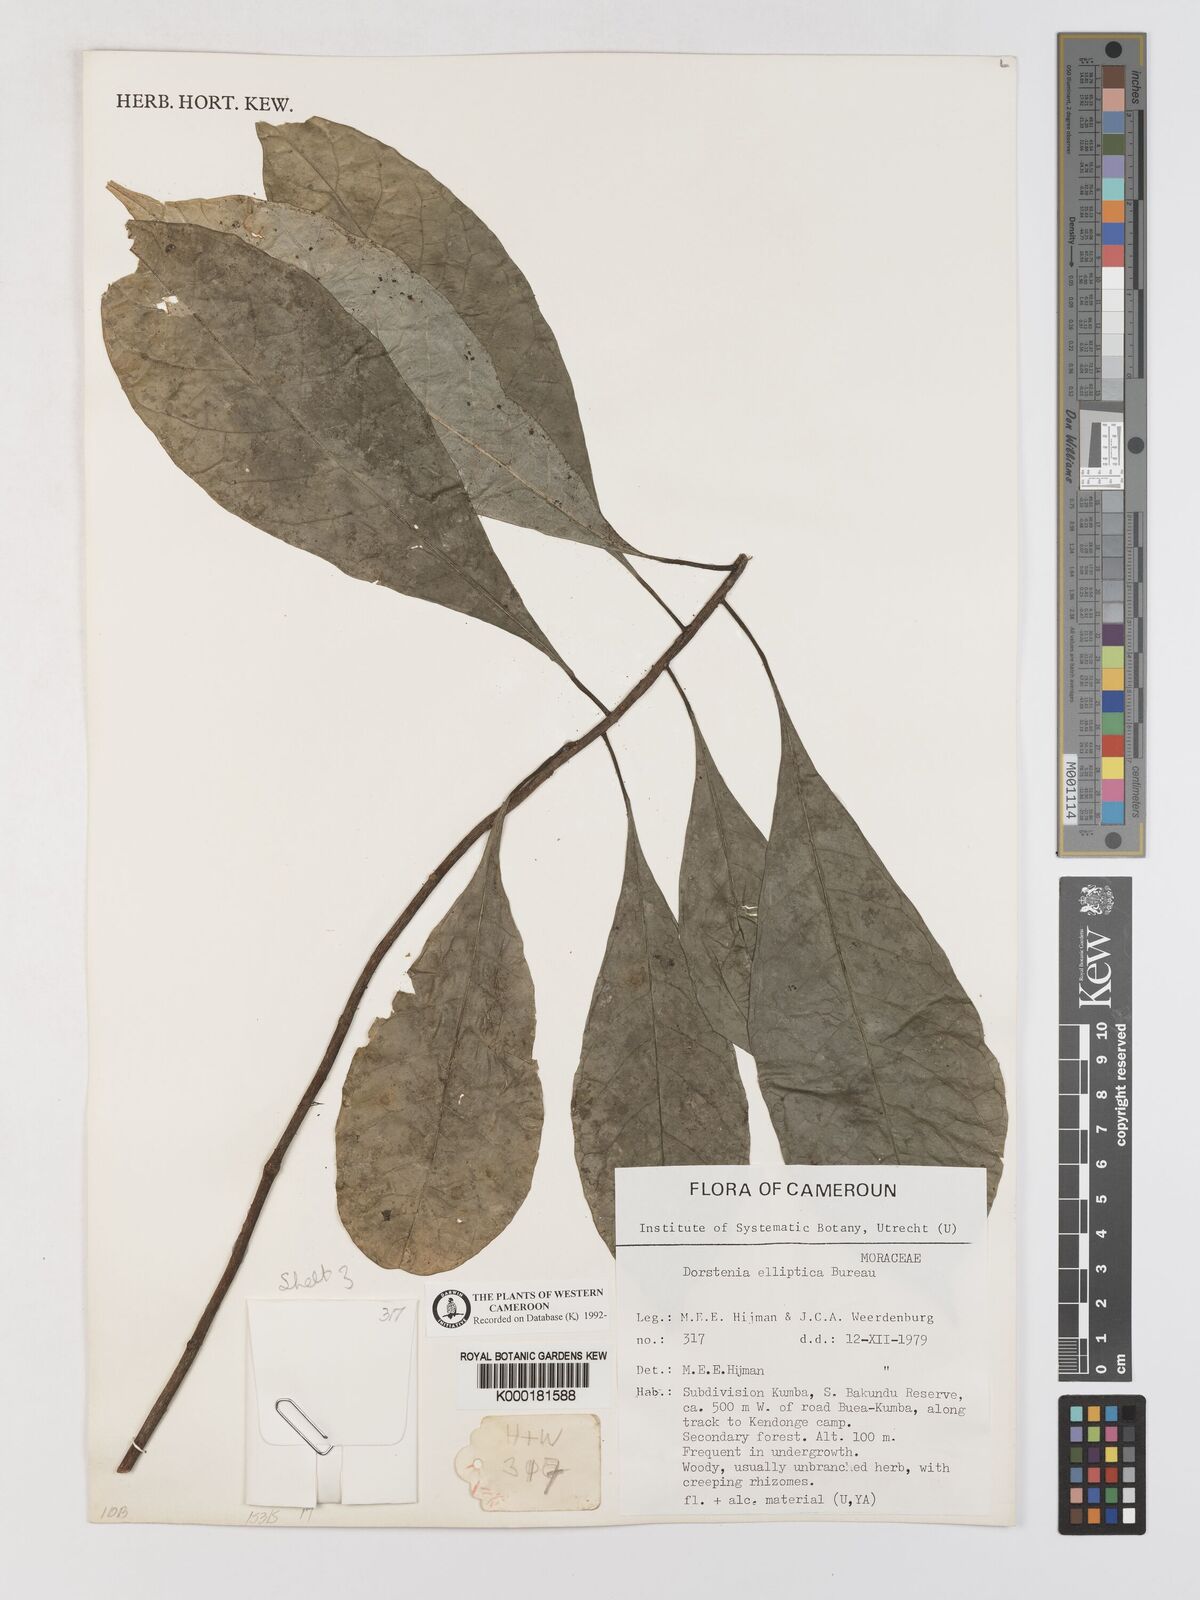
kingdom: Plantae
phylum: Tracheophyta
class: Magnoliopsida
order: Rosales
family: Moraceae
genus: Dorstenia
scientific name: Dorstenia elliptica
